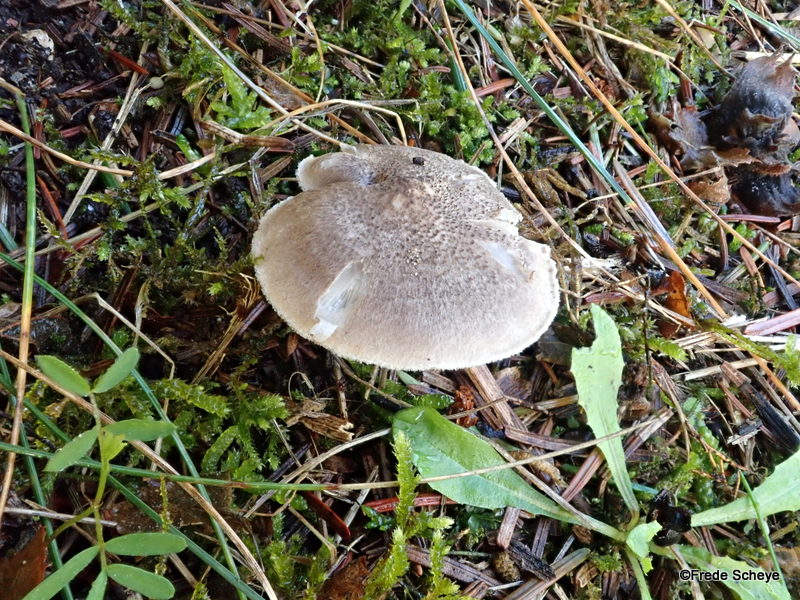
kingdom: Fungi
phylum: Basidiomycota
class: Agaricomycetes
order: Agaricales
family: Tricholomataceae
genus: Tricholoma
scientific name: Tricholoma scalpturatum
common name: gulplettet ridderhat
